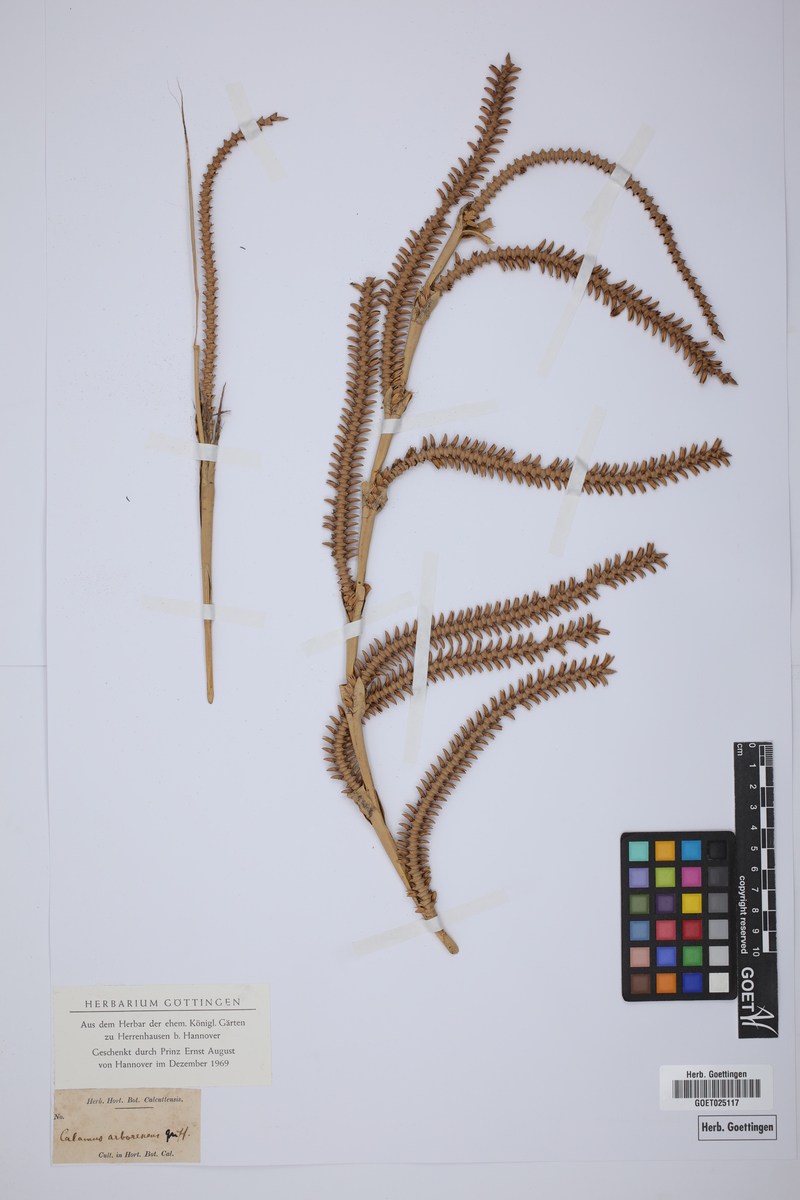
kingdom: Plantae
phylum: Tracheophyta
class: Liliopsida
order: Arecales
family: Arecaceae
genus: Calamus
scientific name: Calamus arborescens
